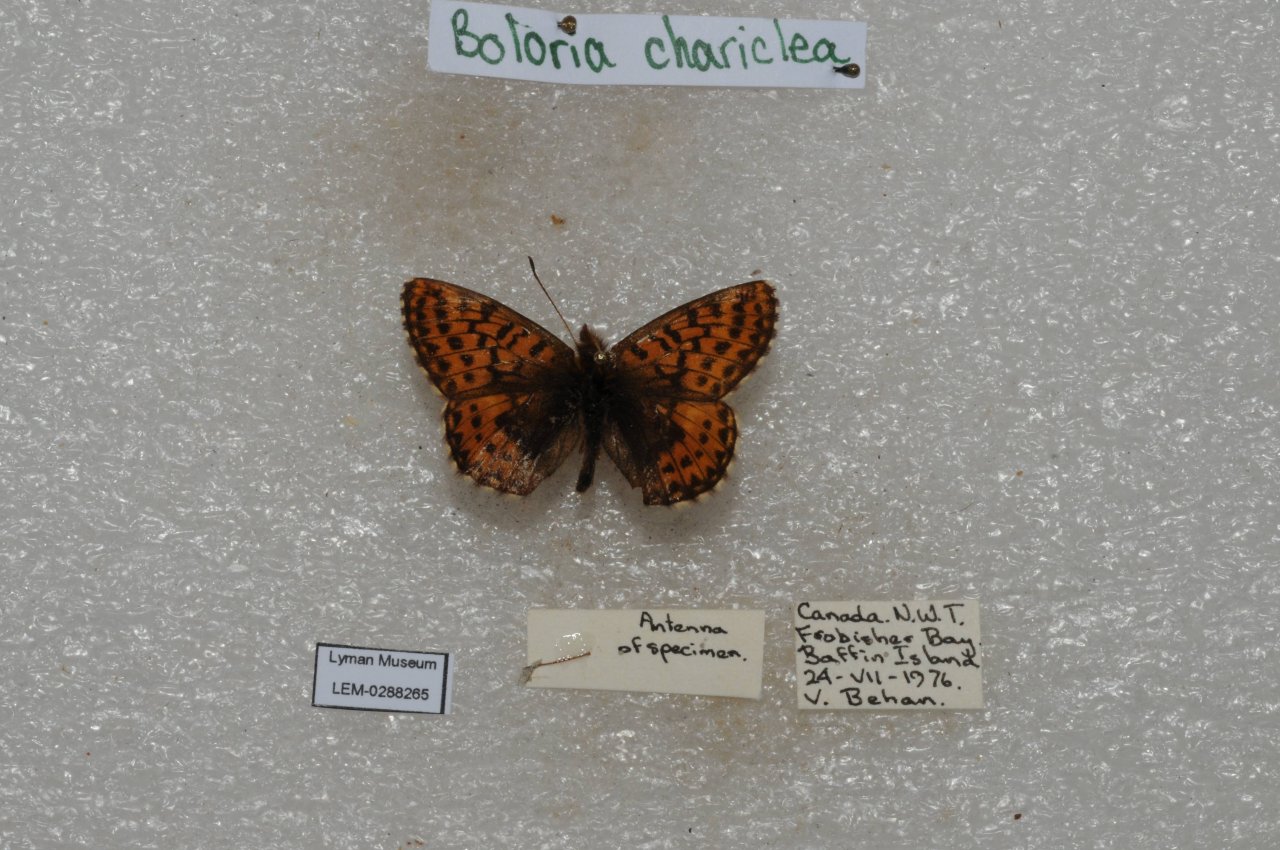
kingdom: Animalia
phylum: Arthropoda
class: Insecta
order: Lepidoptera
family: Nymphalidae
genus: Boloria
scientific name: Boloria chariclea
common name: Arctic Fritillary
